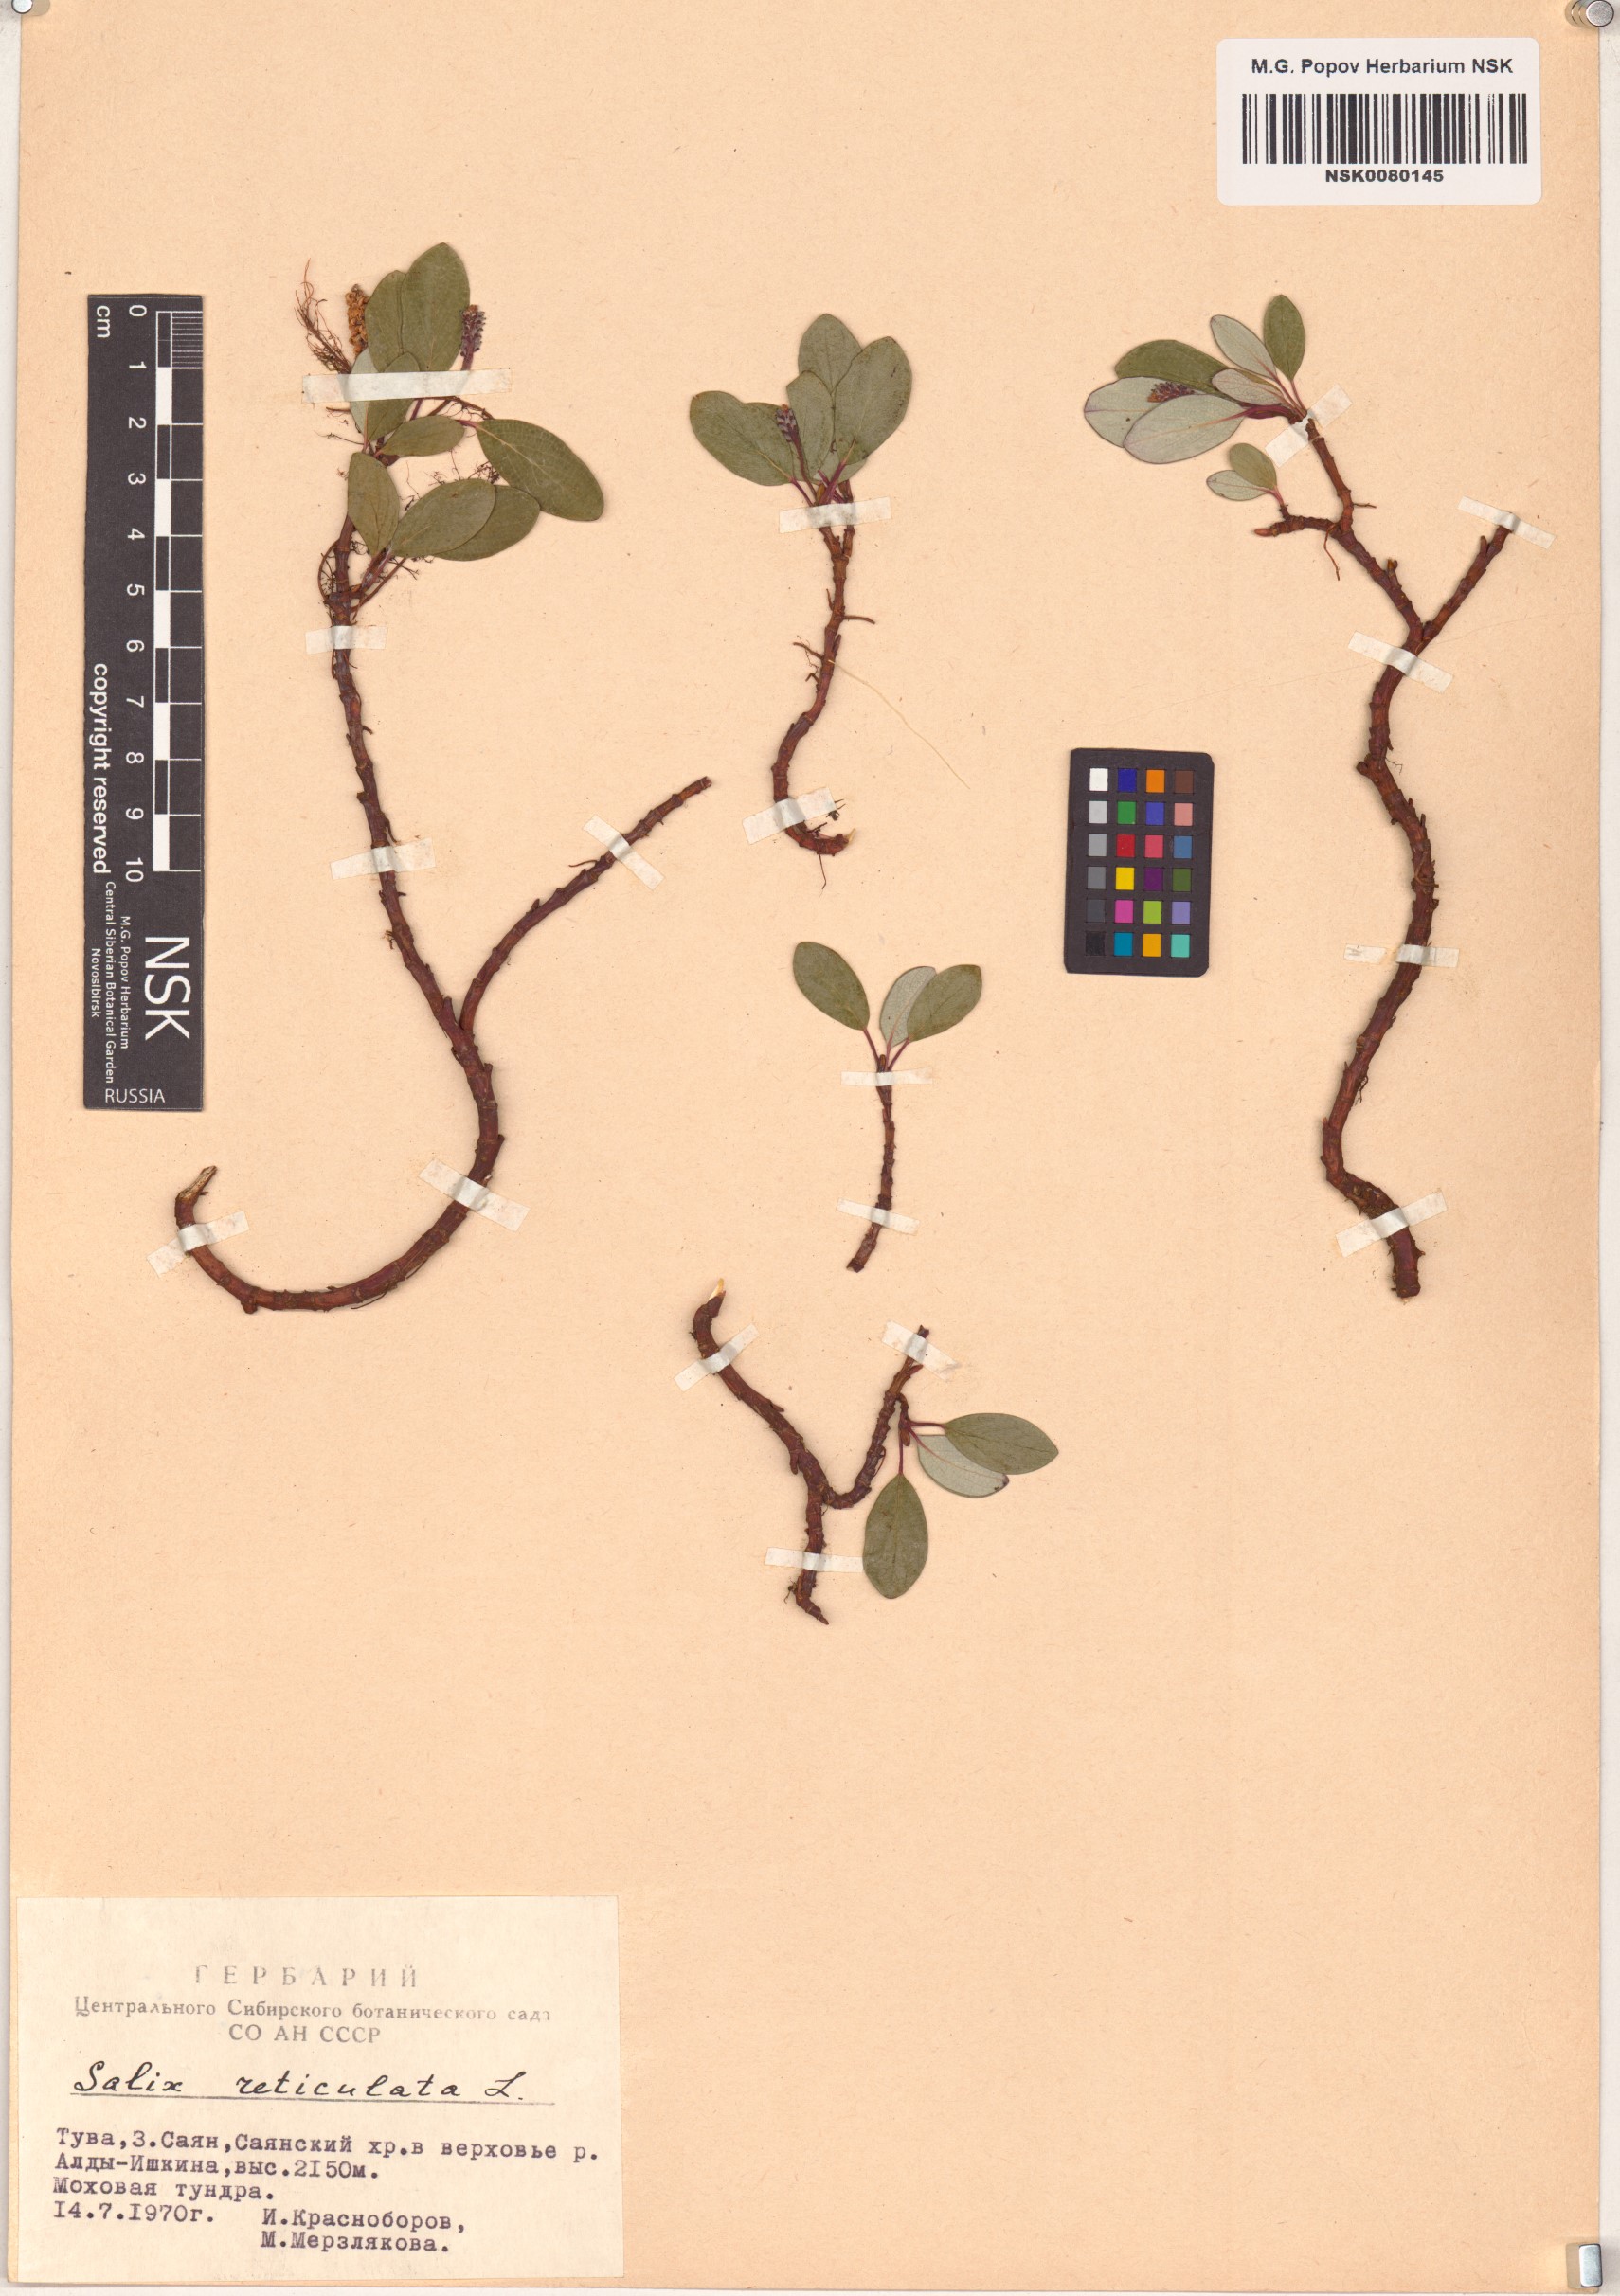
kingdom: Plantae
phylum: Tracheophyta
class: Magnoliopsida
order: Malpighiales
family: Salicaceae
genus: Salix
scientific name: Salix reticulata
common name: Net-leaved willow
